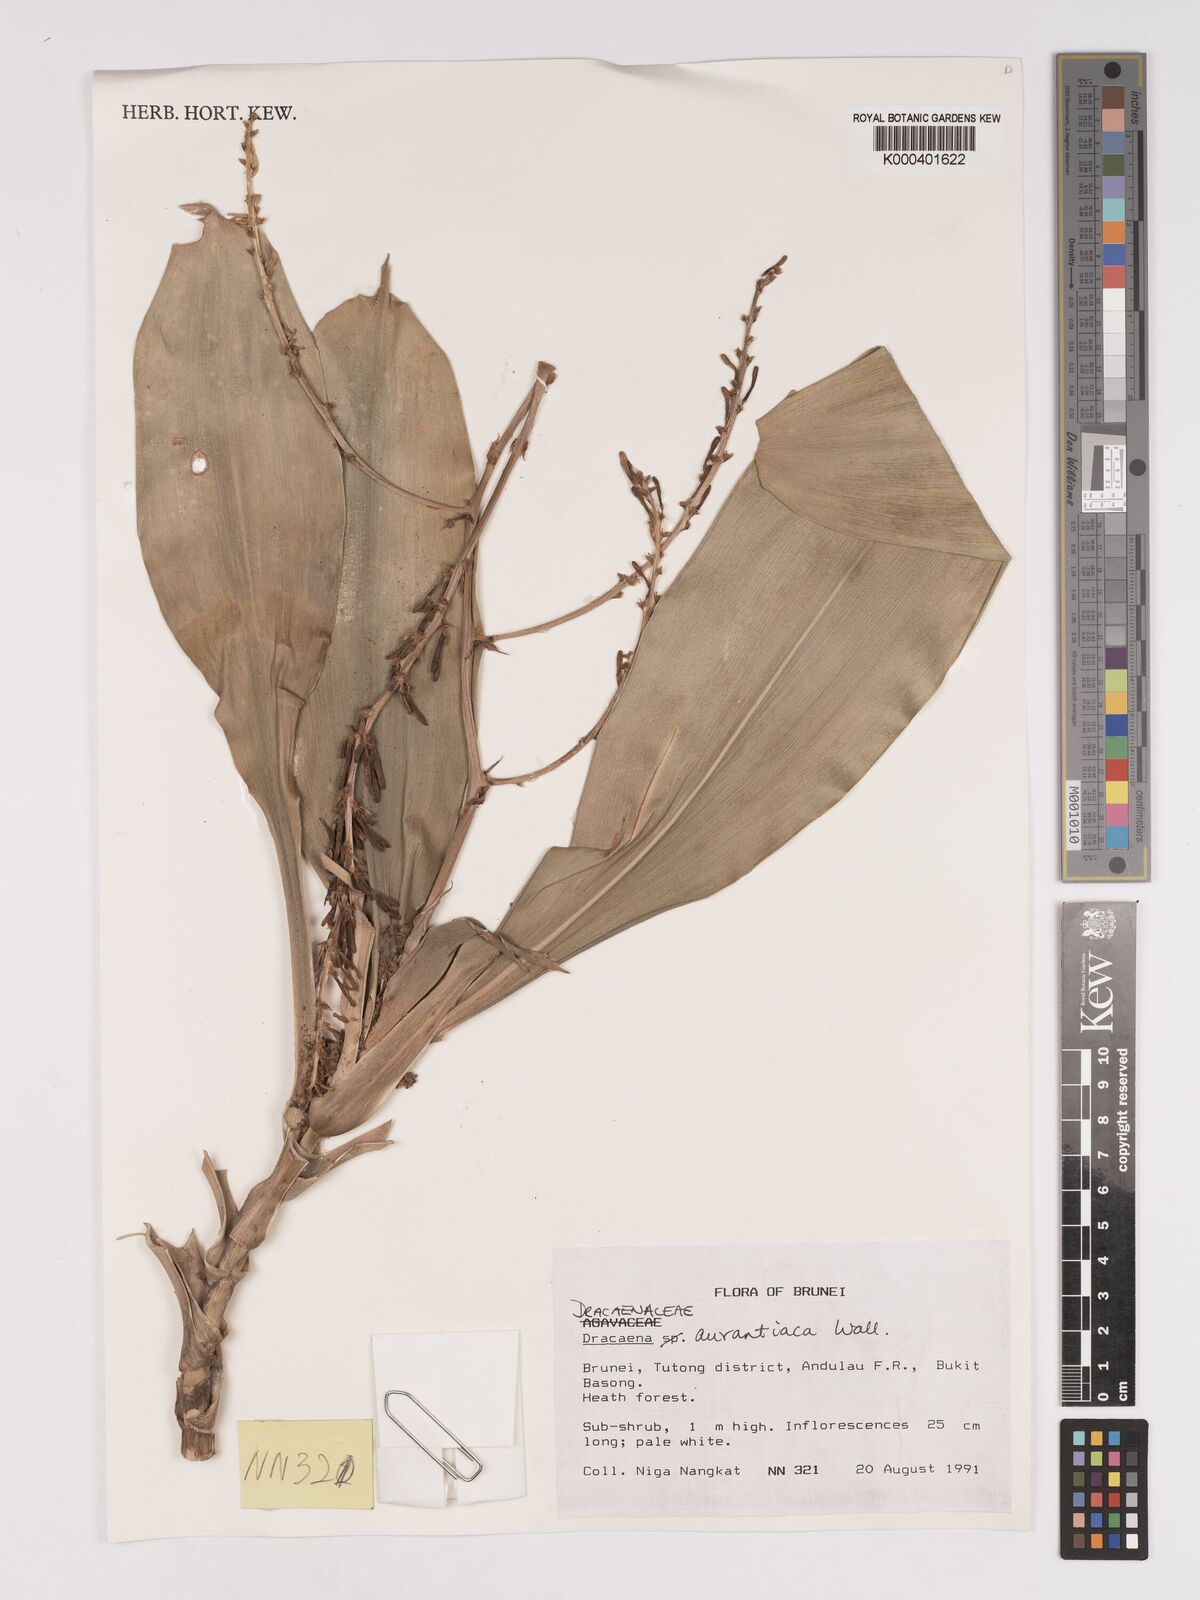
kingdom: Plantae
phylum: Tracheophyta
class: Liliopsida
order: Asparagales
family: Asparagaceae
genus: Dracaena
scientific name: Dracaena
